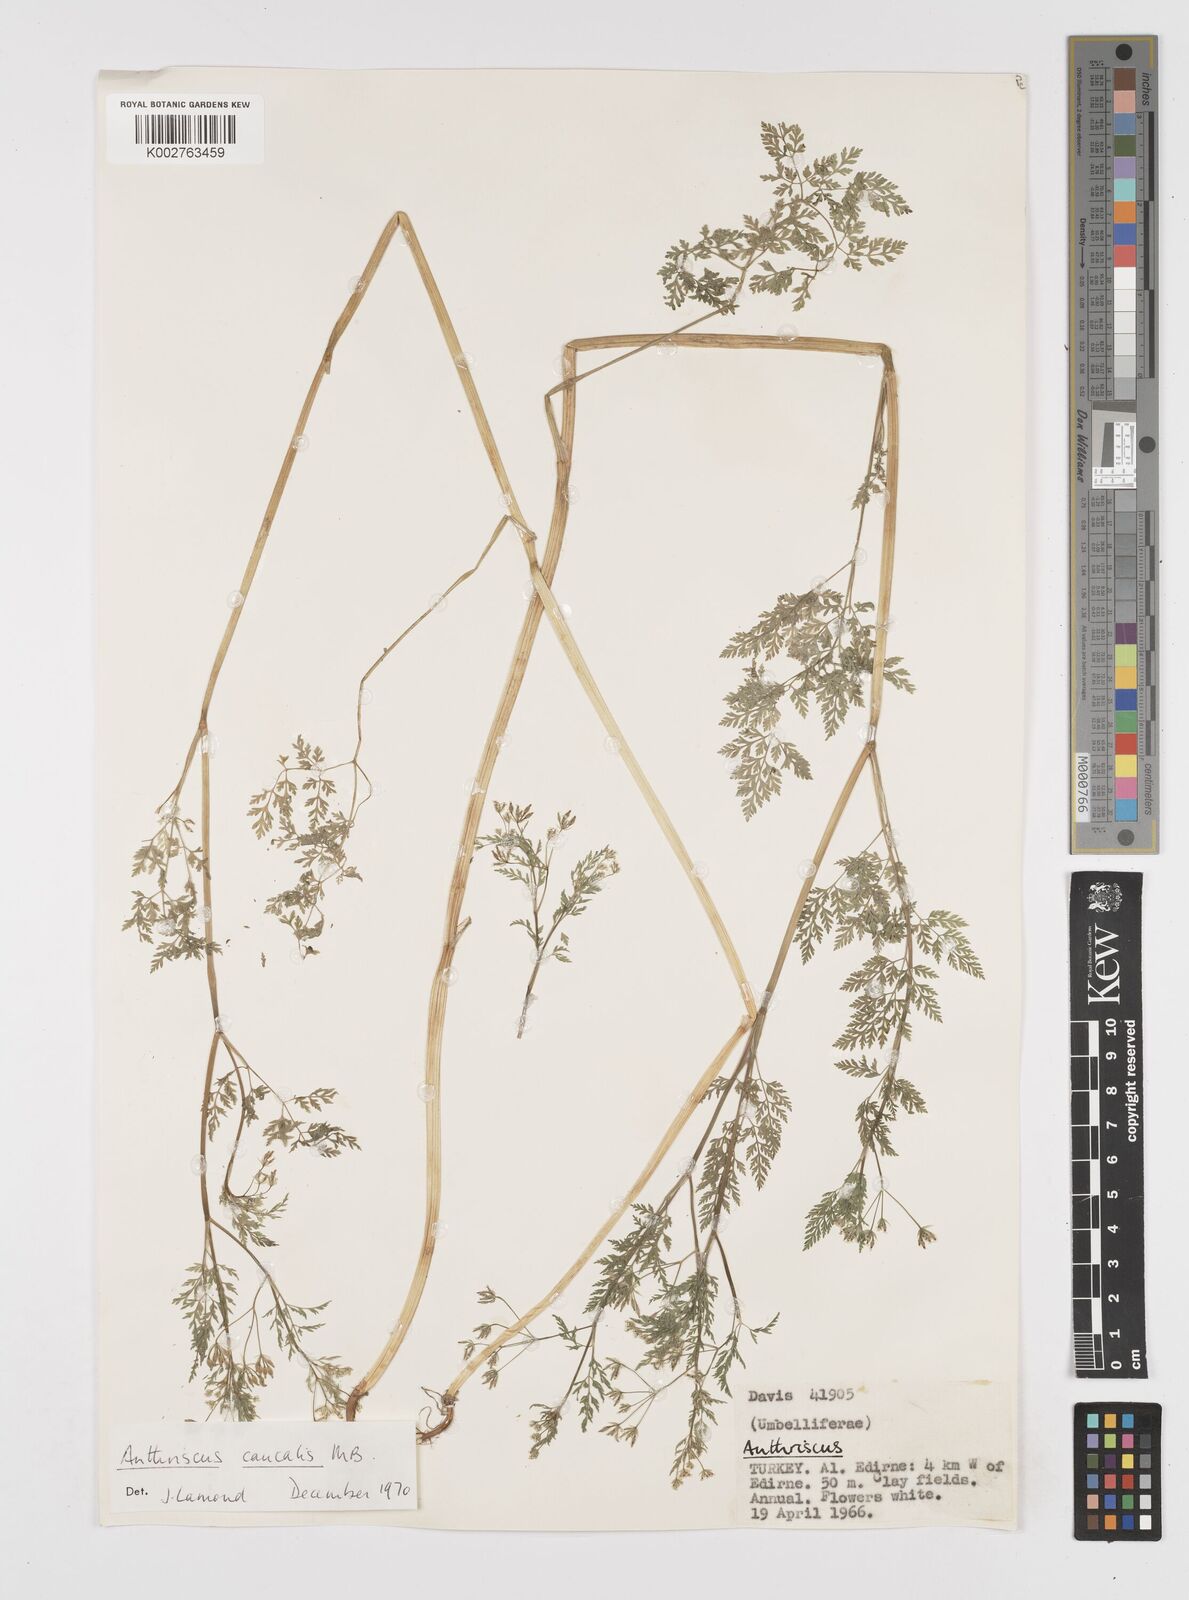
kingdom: Plantae
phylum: Tracheophyta
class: Magnoliopsida
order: Apiales
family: Apiaceae
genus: Anthriscus
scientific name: Anthriscus caucalis
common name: Bur chervil
